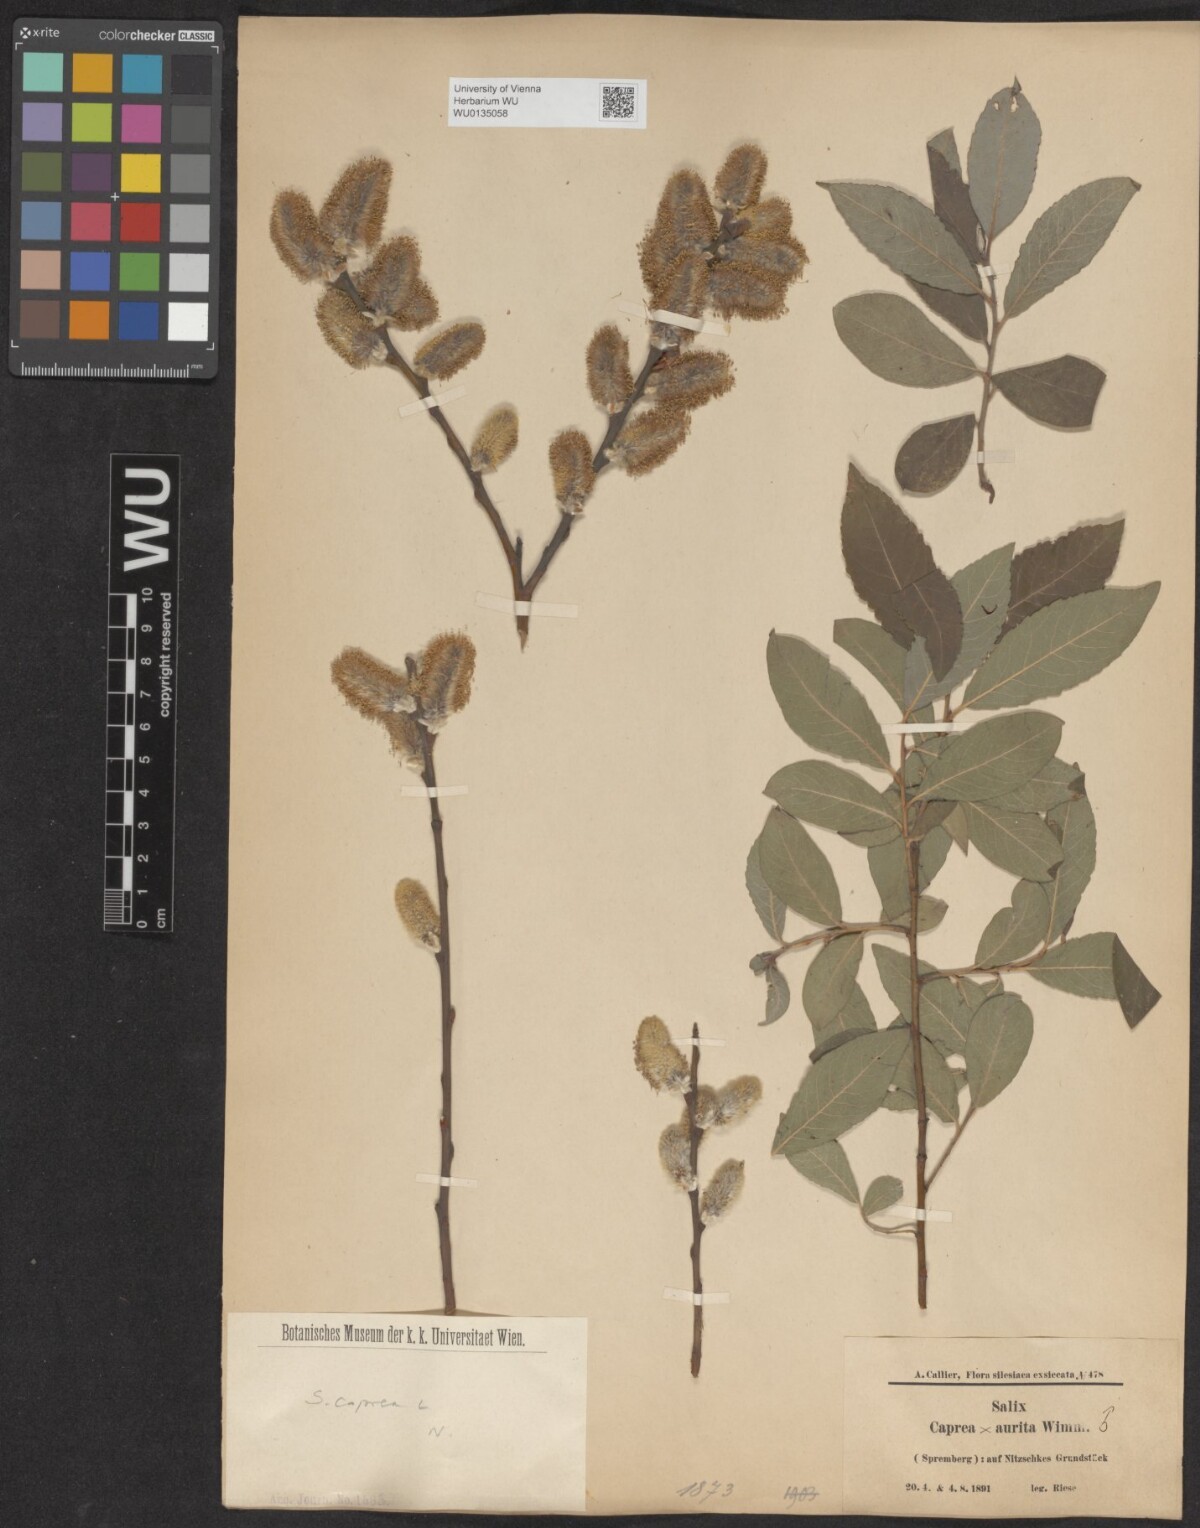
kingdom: Plantae
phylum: Tracheophyta
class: Magnoliopsida
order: Malpighiales
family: Salicaceae
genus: Salix
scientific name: Salix caprea
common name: Goat willow
